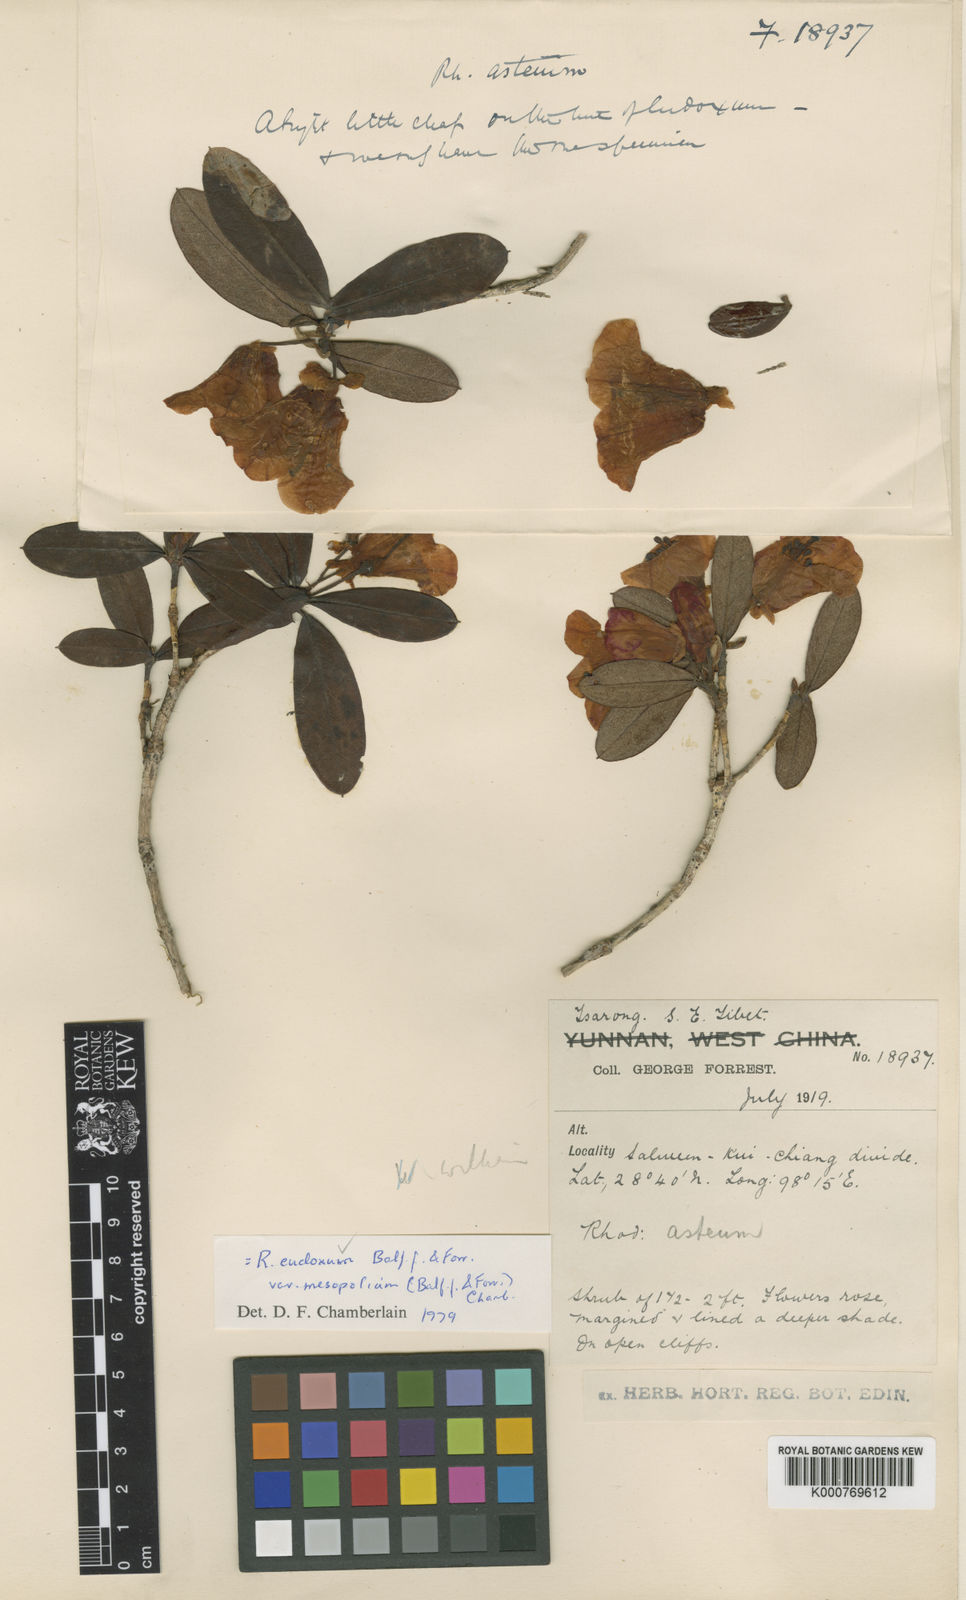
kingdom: Plantae
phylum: Tracheophyta
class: Magnoliopsida
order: Ericales
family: Ericaceae
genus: Rhododendron
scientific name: Rhododendron eudoxum
